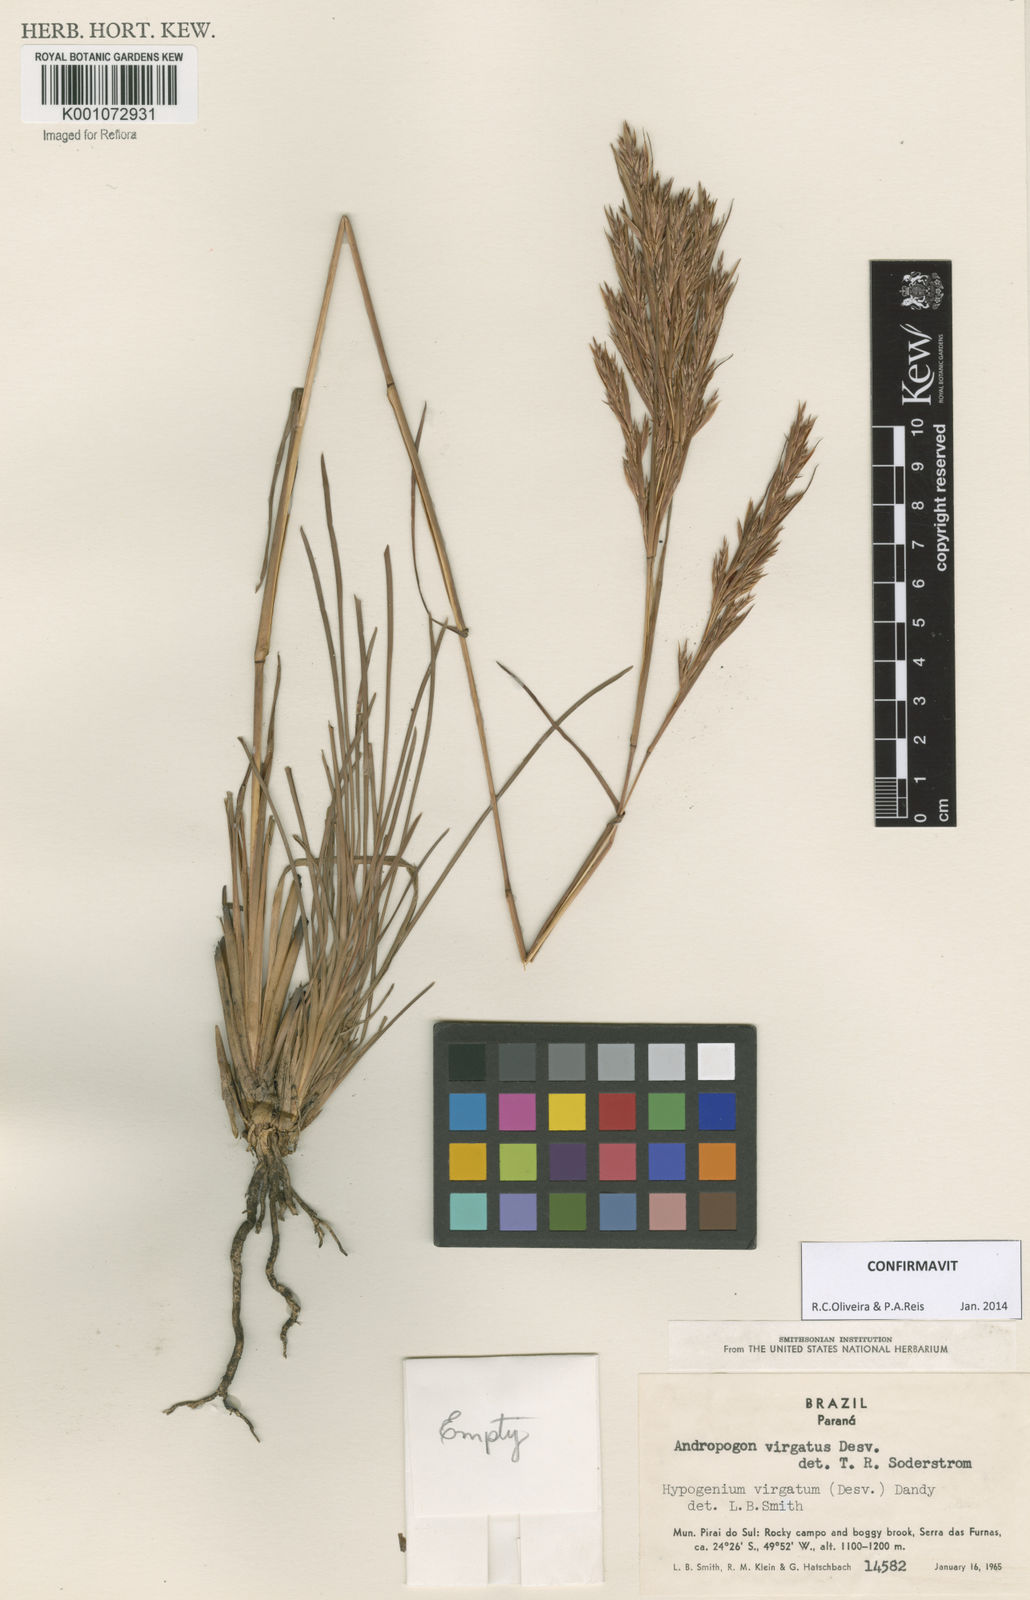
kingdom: Plantae
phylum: Tracheophyta
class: Liliopsida
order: Poales
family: Poaceae
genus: Andropogon
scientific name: Andropogon virgatus
